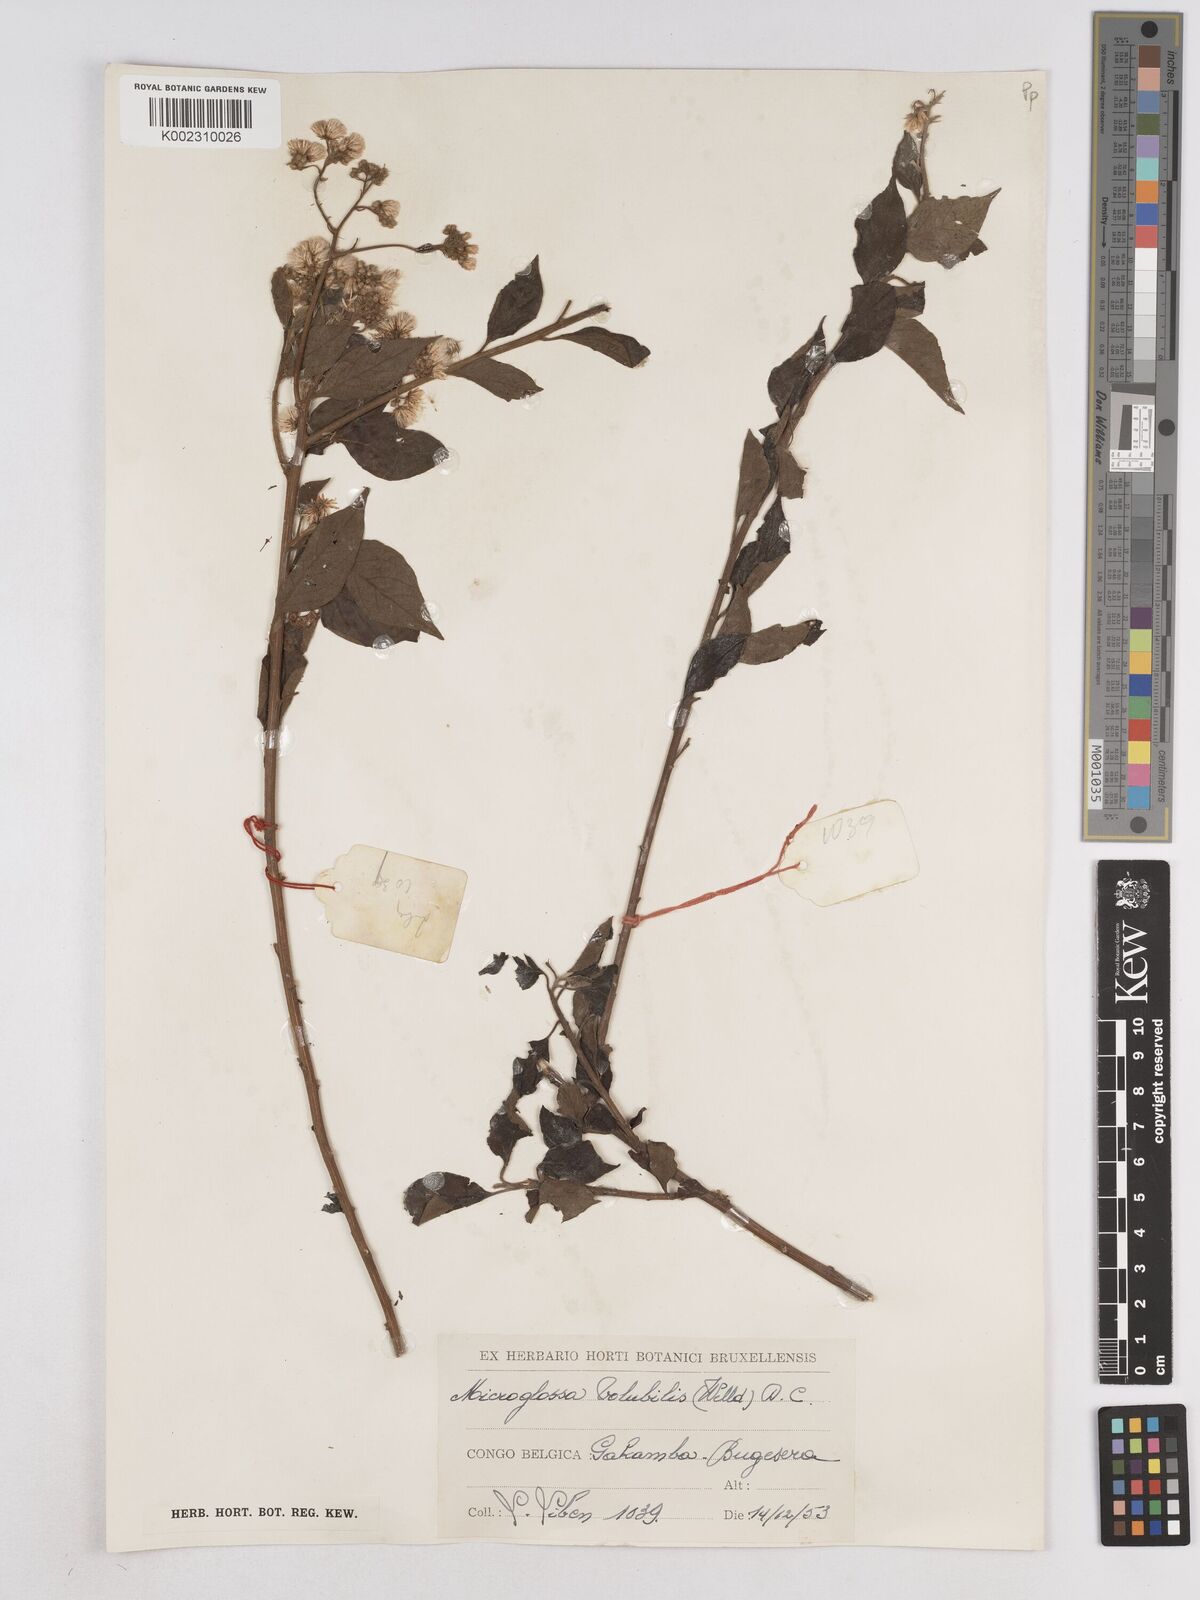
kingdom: Plantae
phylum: Tracheophyta
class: Magnoliopsida
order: Asterales
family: Asteraceae
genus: Microglossa
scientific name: Microglossa pyrifolia
